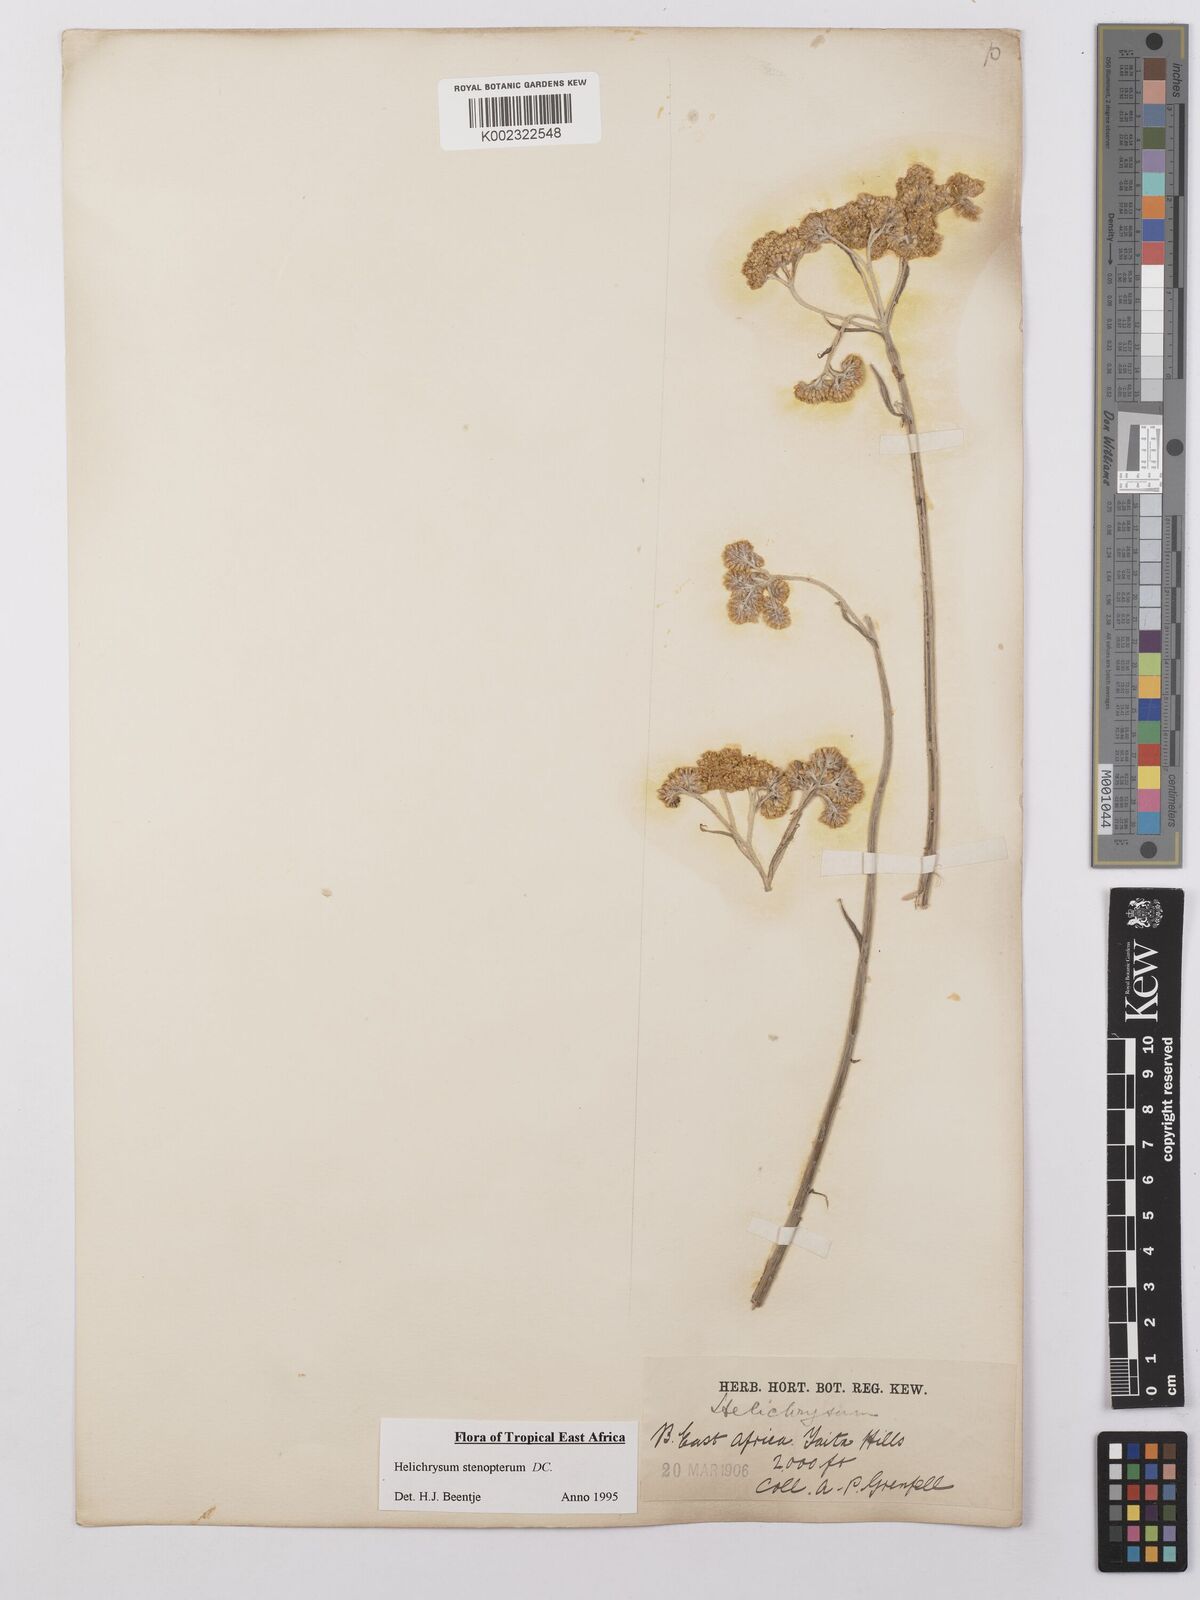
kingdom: Plantae
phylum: Tracheophyta
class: Magnoliopsida
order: Asterales
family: Asteraceae
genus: Helichrysum
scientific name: Helichrysum stenopterum
